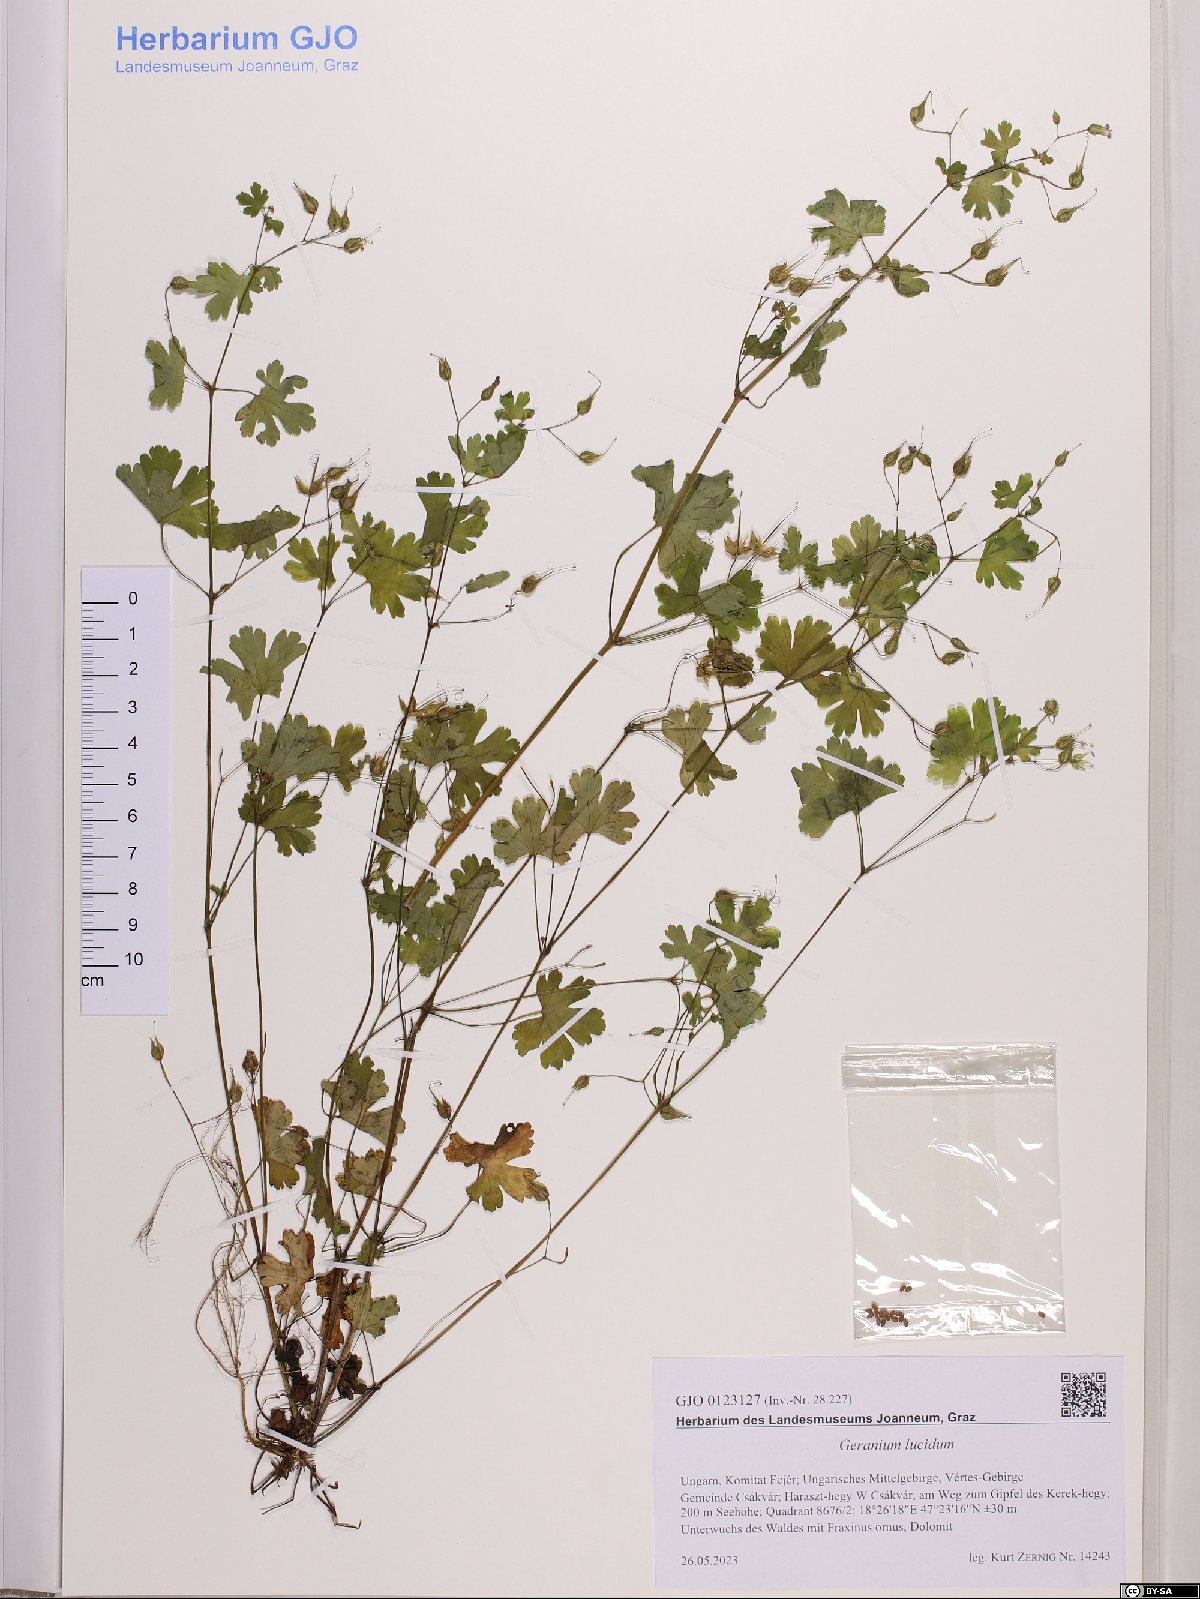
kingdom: Plantae
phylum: Tracheophyta
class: Magnoliopsida
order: Geraniales
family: Geraniaceae
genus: Geranium
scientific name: Geranium lucidum
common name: Shining crane's-bill
